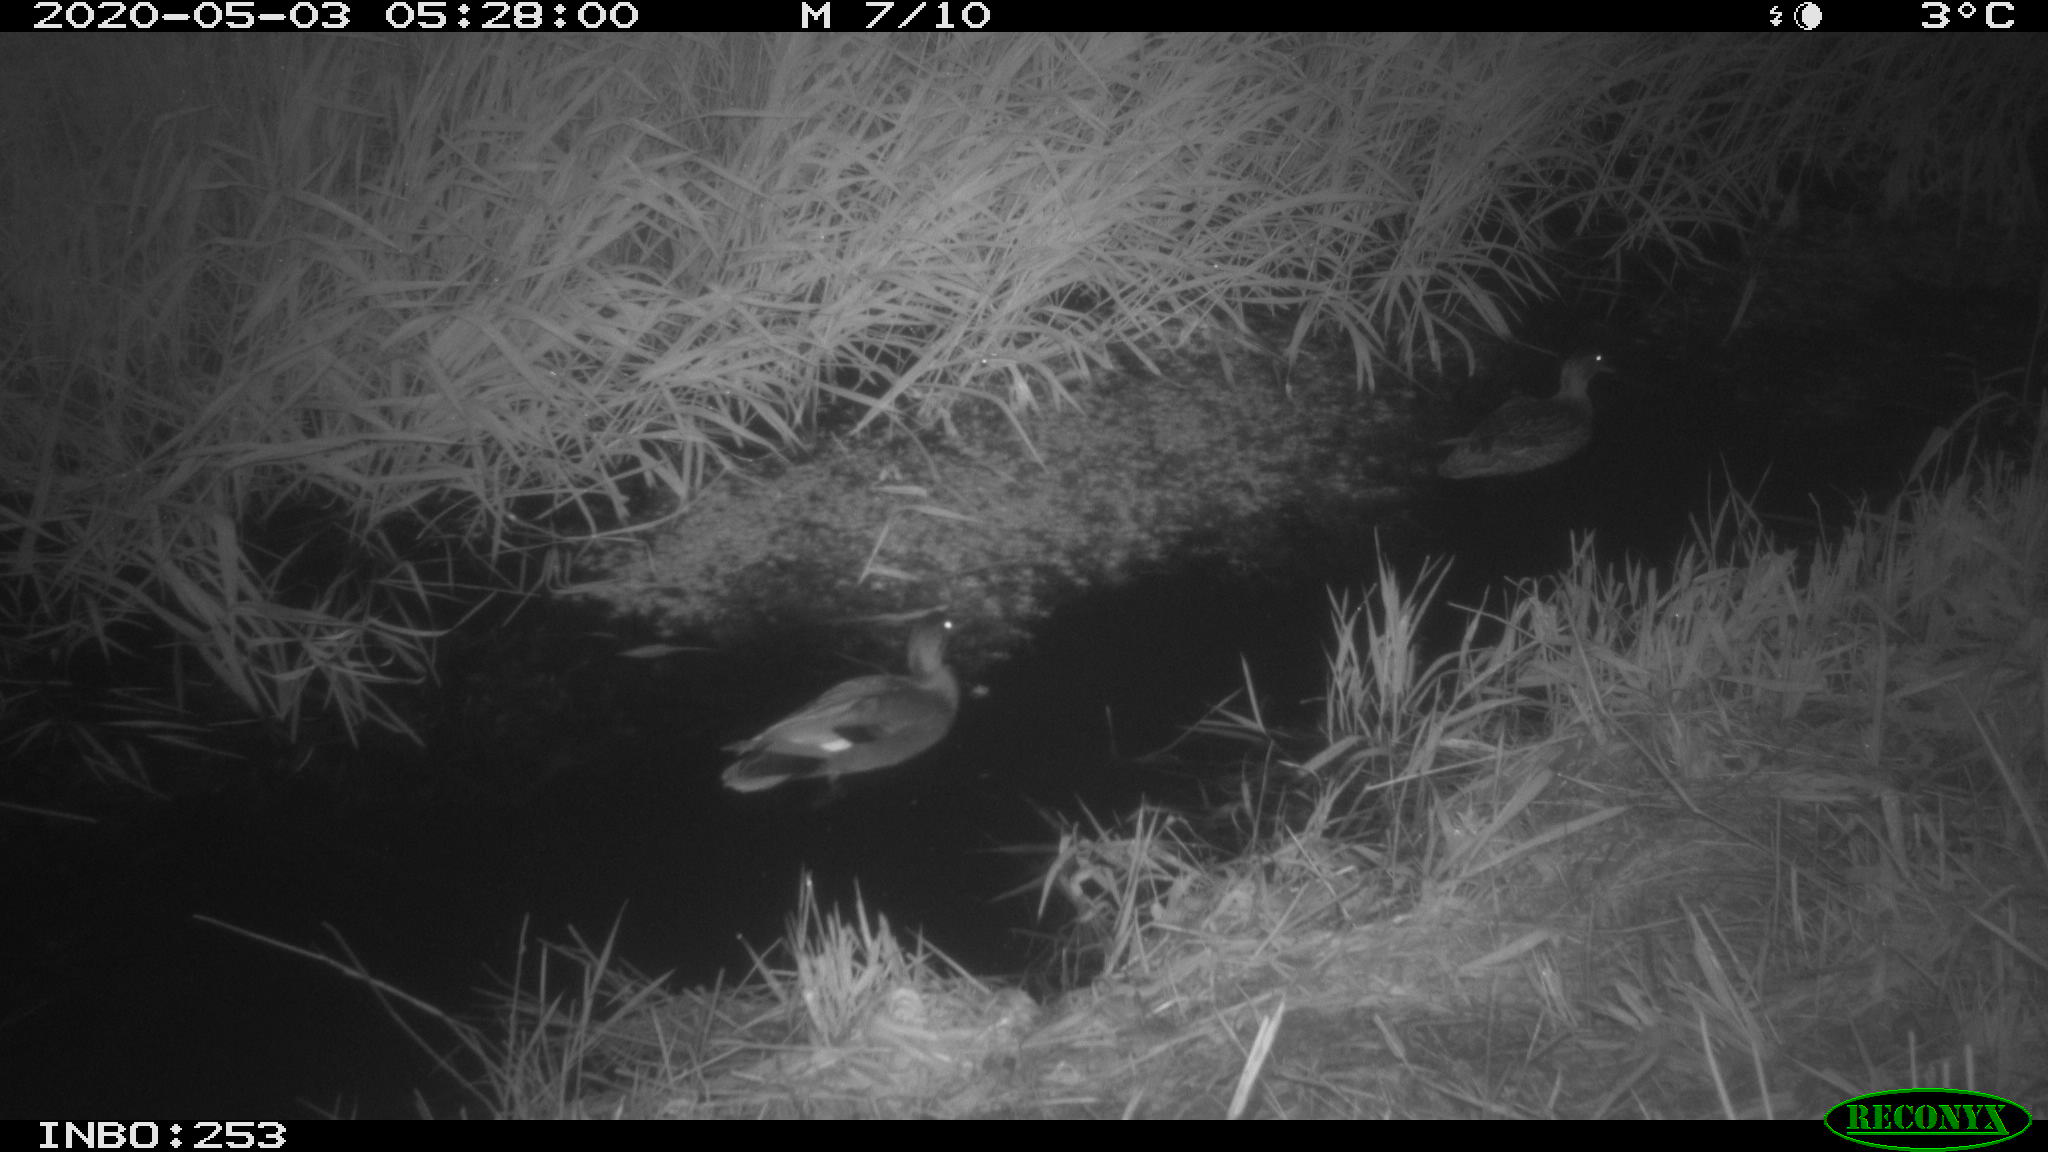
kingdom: Animalia
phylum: Chordata
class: Aves
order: Anseriformes
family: Anatidae
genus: Mareca
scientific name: Mareca strepera
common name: Gadwall
